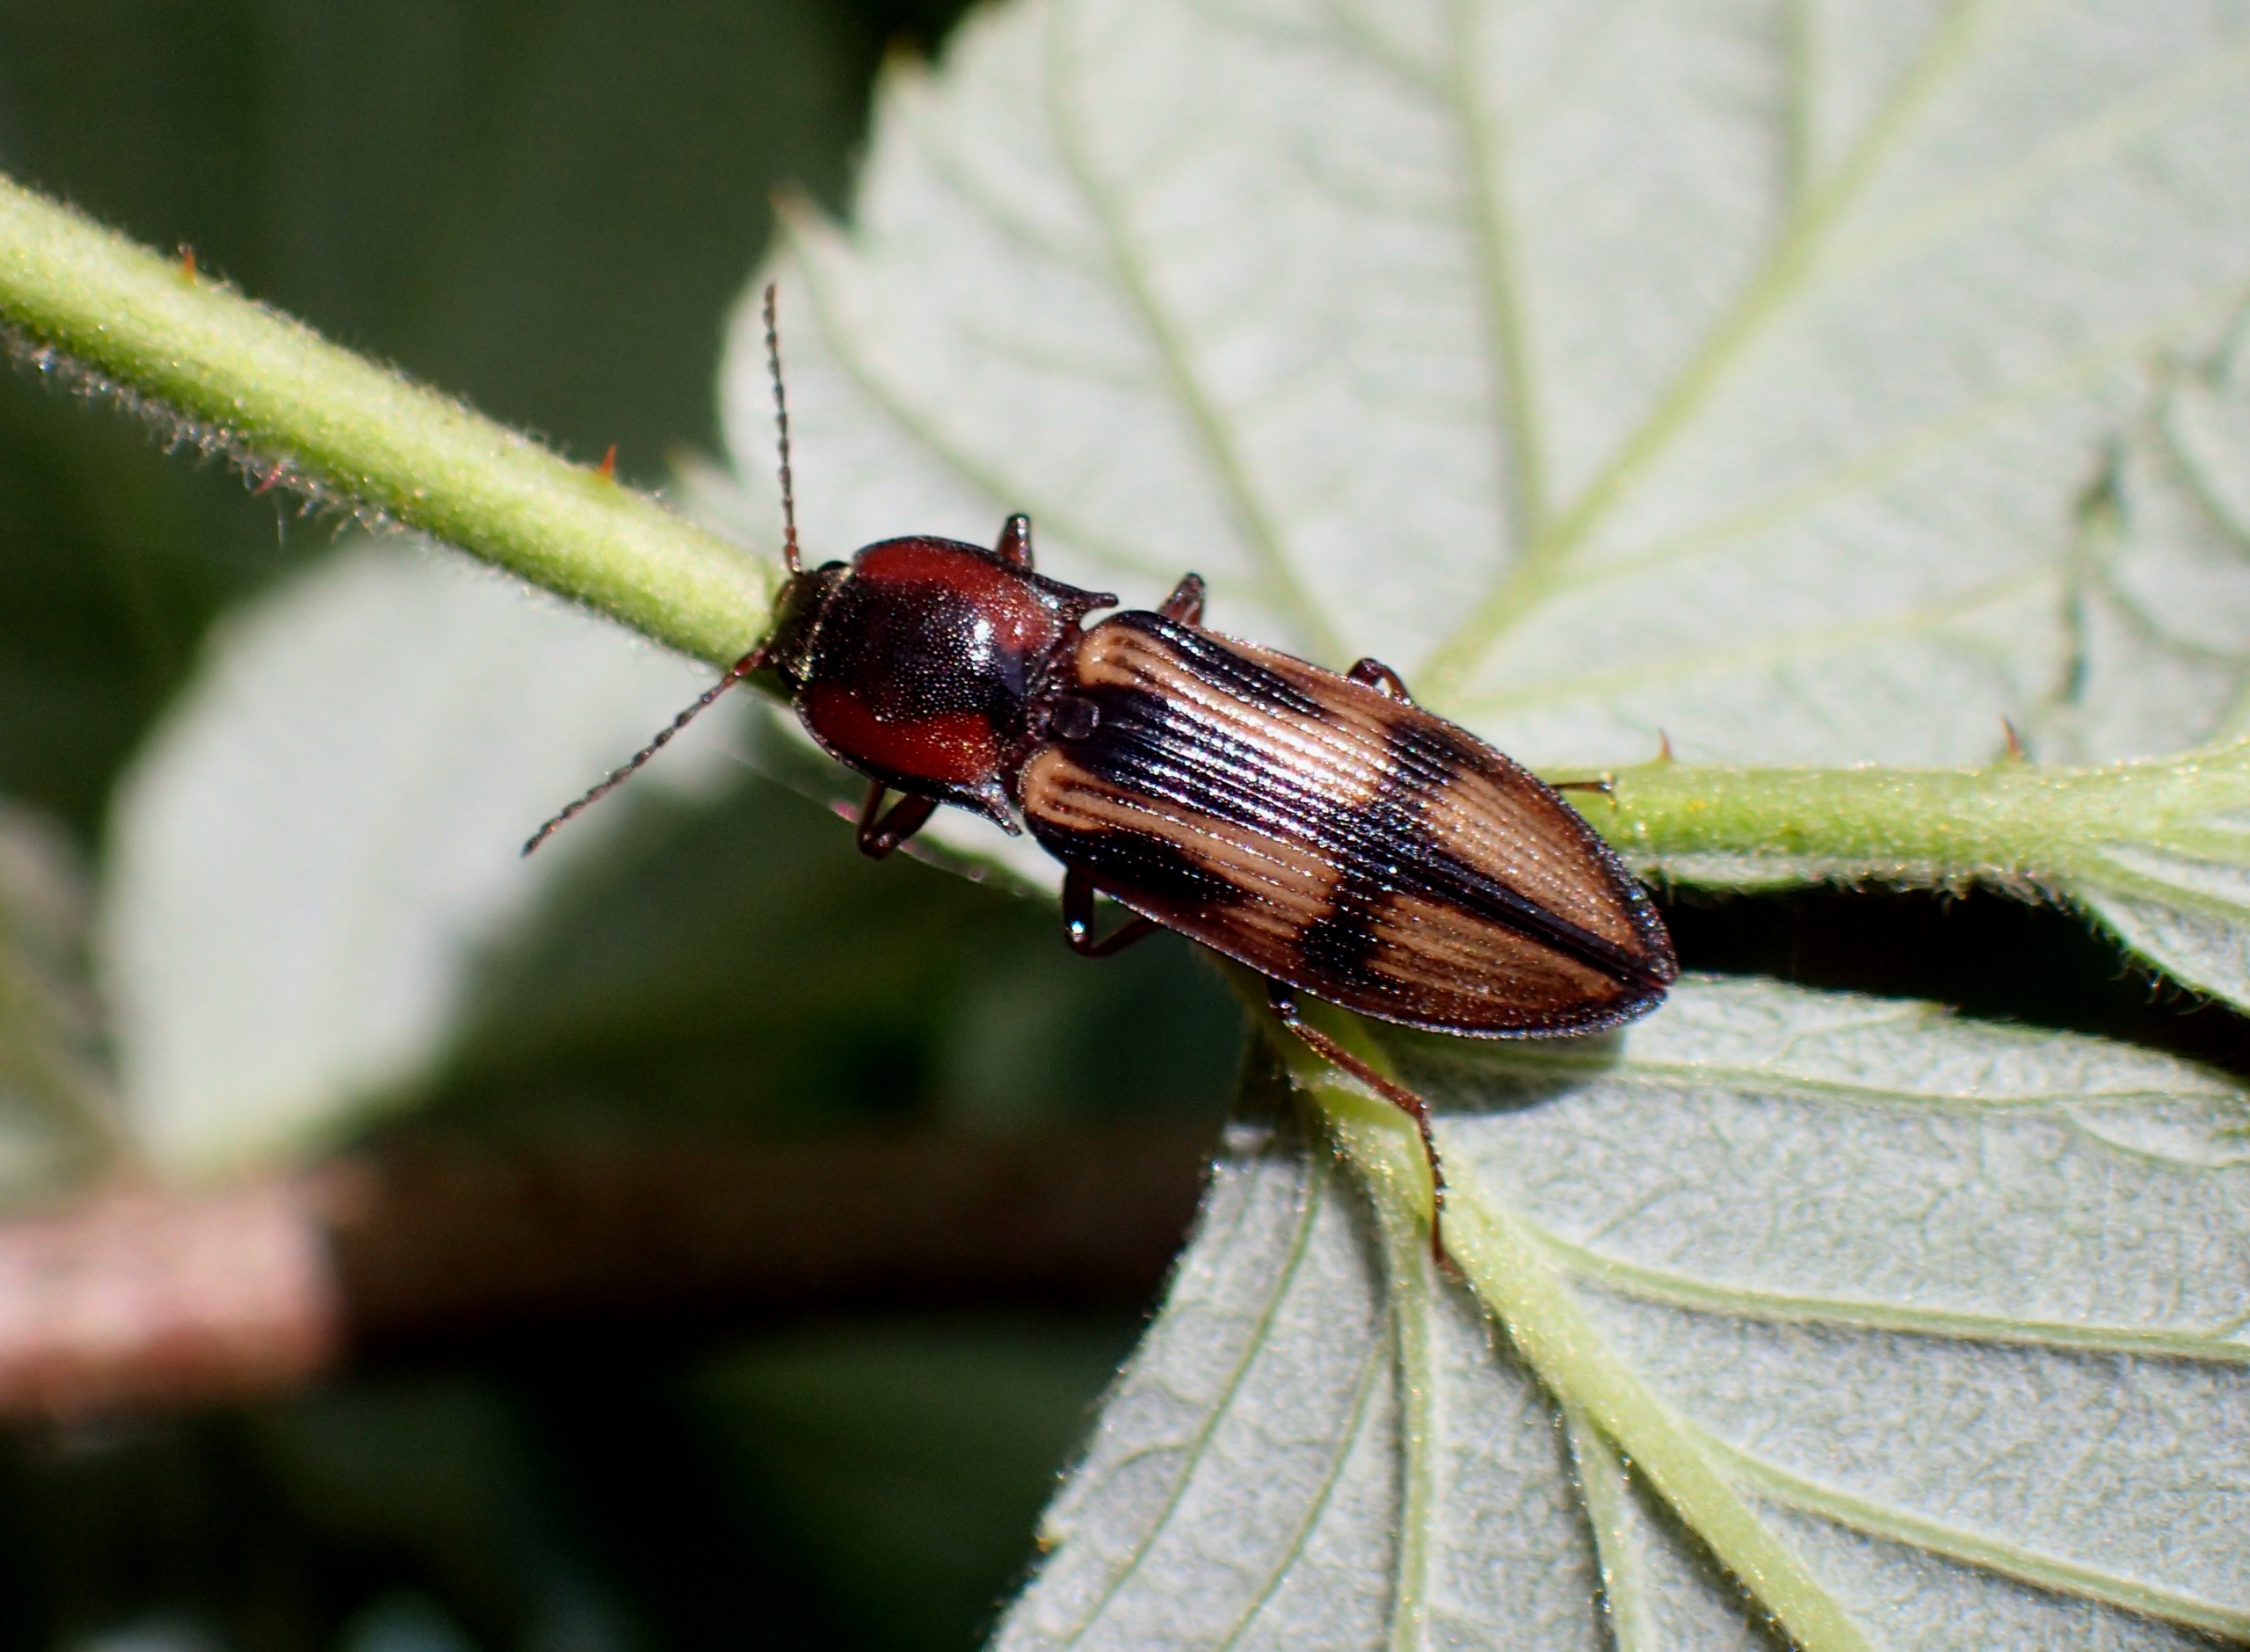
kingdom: Animalia
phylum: Arthropoda
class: Insecta
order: Coleoptera
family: Elateridae
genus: Selatosomus
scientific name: Selatosomus cruciatus
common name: Korssmælder
